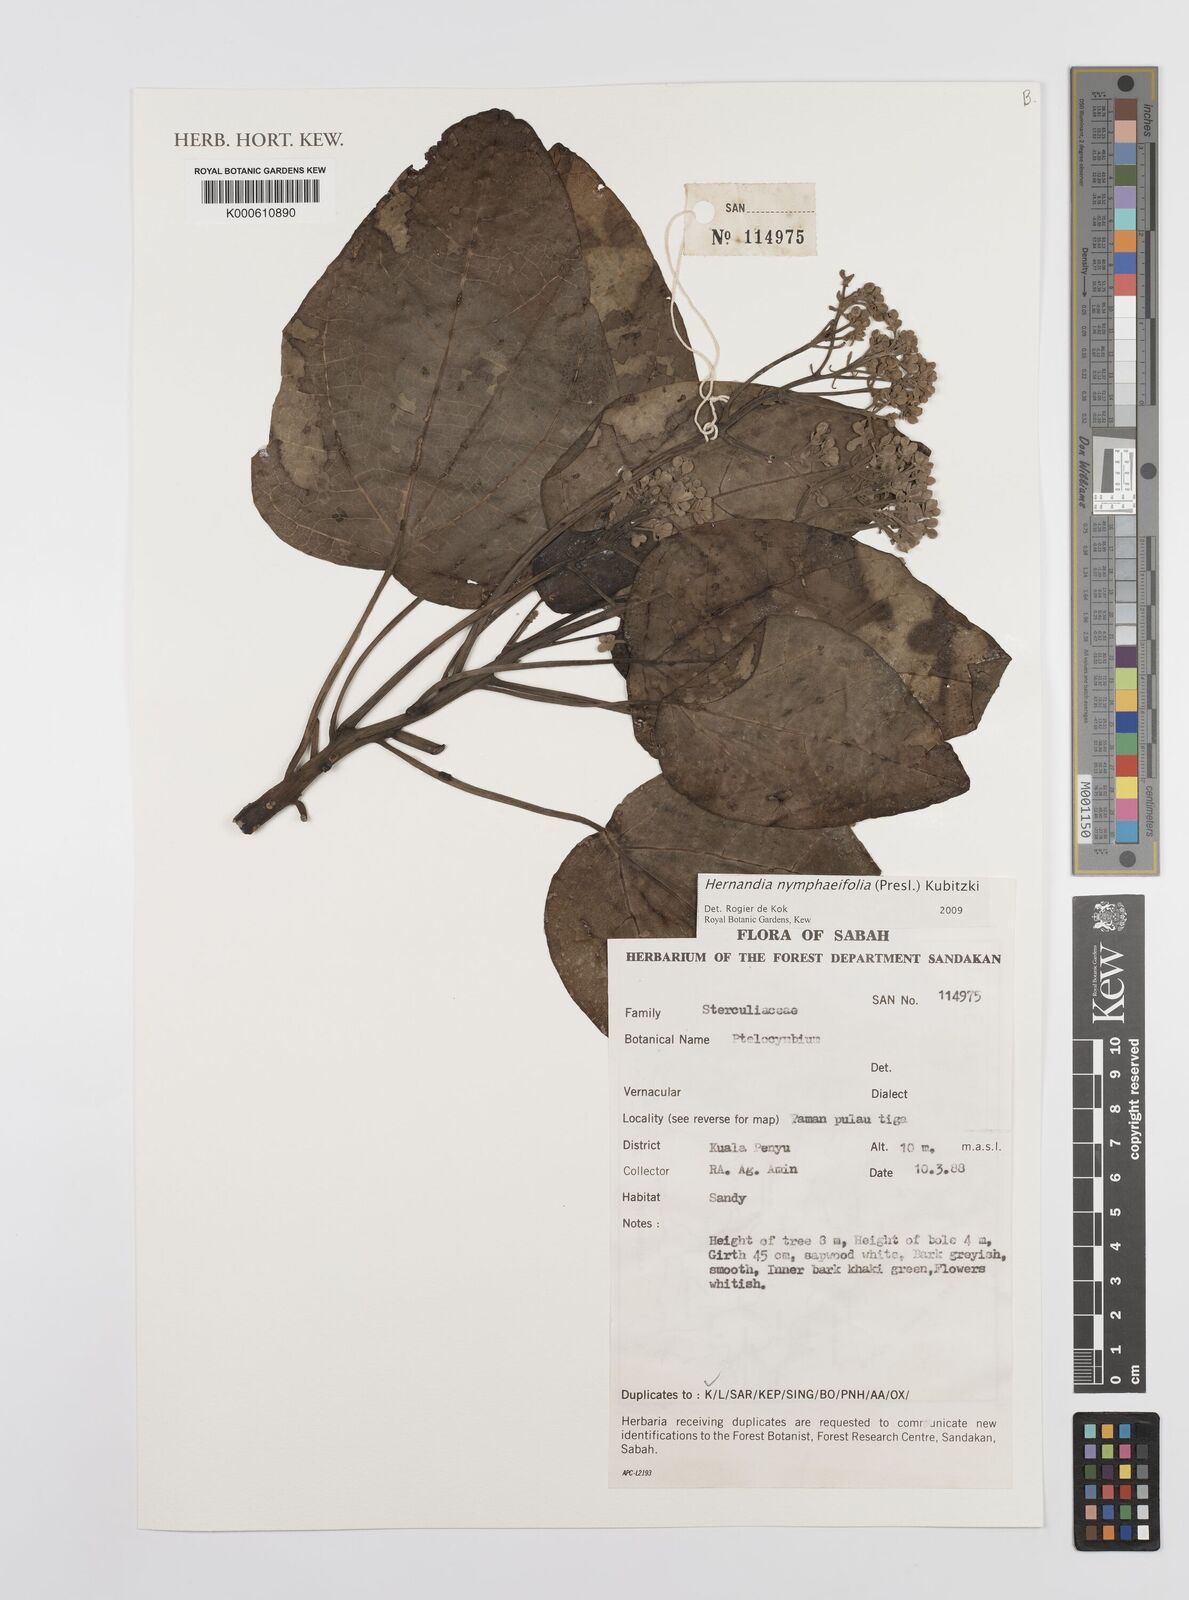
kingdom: Plantae
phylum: Tracheophyta
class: Magnoliopsida
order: Laurales
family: Hernandiaceae
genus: Hernandia
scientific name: Hernandia nymphaeifolia
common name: Sea hearse
